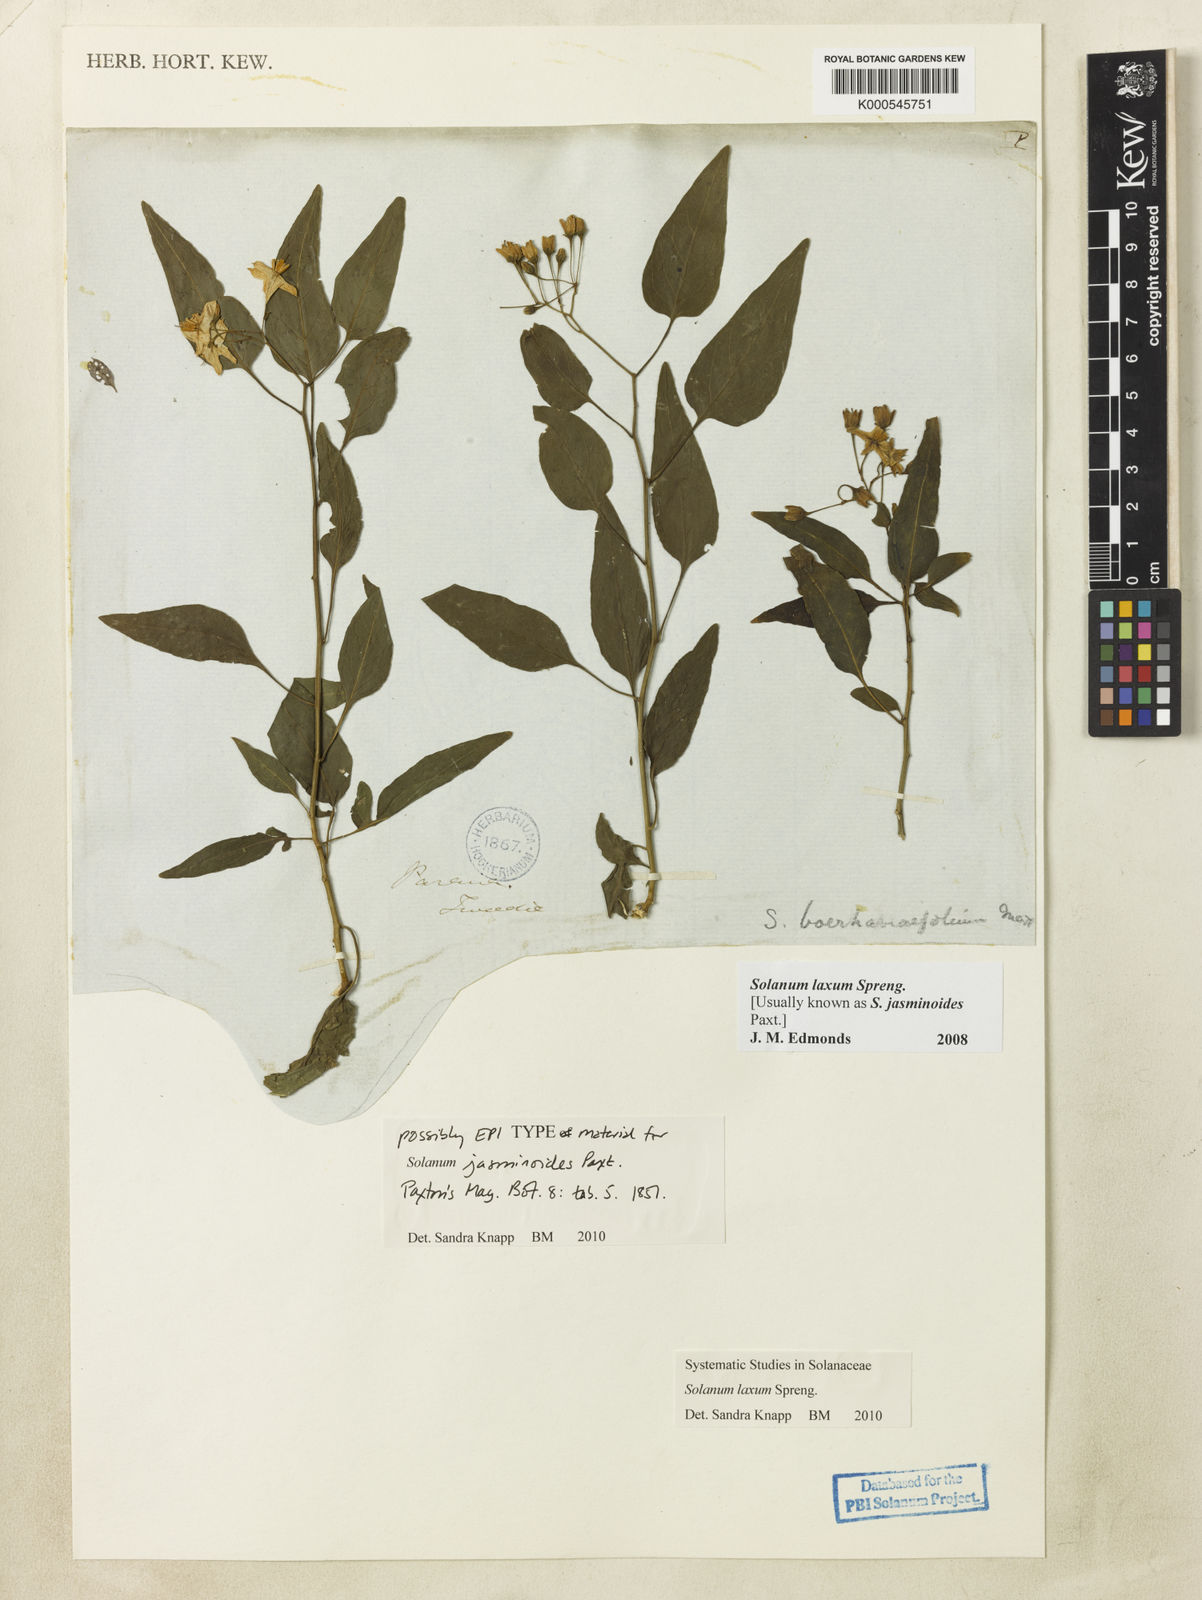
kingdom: Plantae
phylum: Tracheophyta
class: Magnoliopsida
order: Solanales
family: Solanaceae
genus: Solanum
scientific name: Solanum laxum
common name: Nightshade
